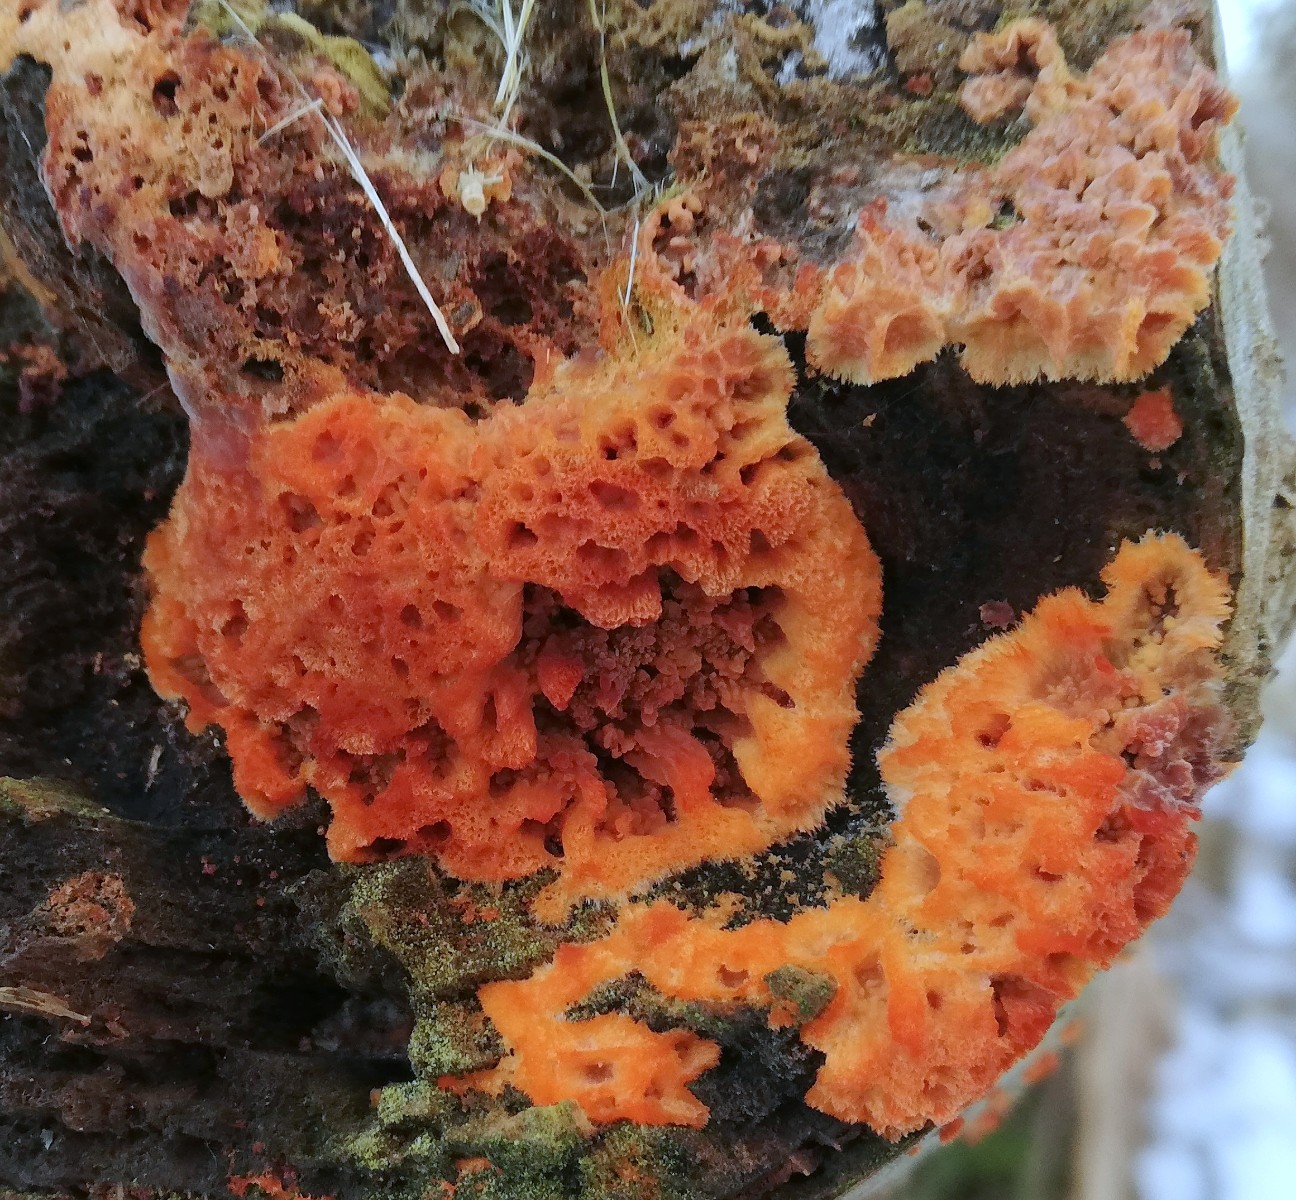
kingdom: Fungi
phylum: Basidiomycota
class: Agaricomycetes
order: Polyporales
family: Meruliaceae
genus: Phlebia
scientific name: Phlebia radiata
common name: stråle-åresvamp
